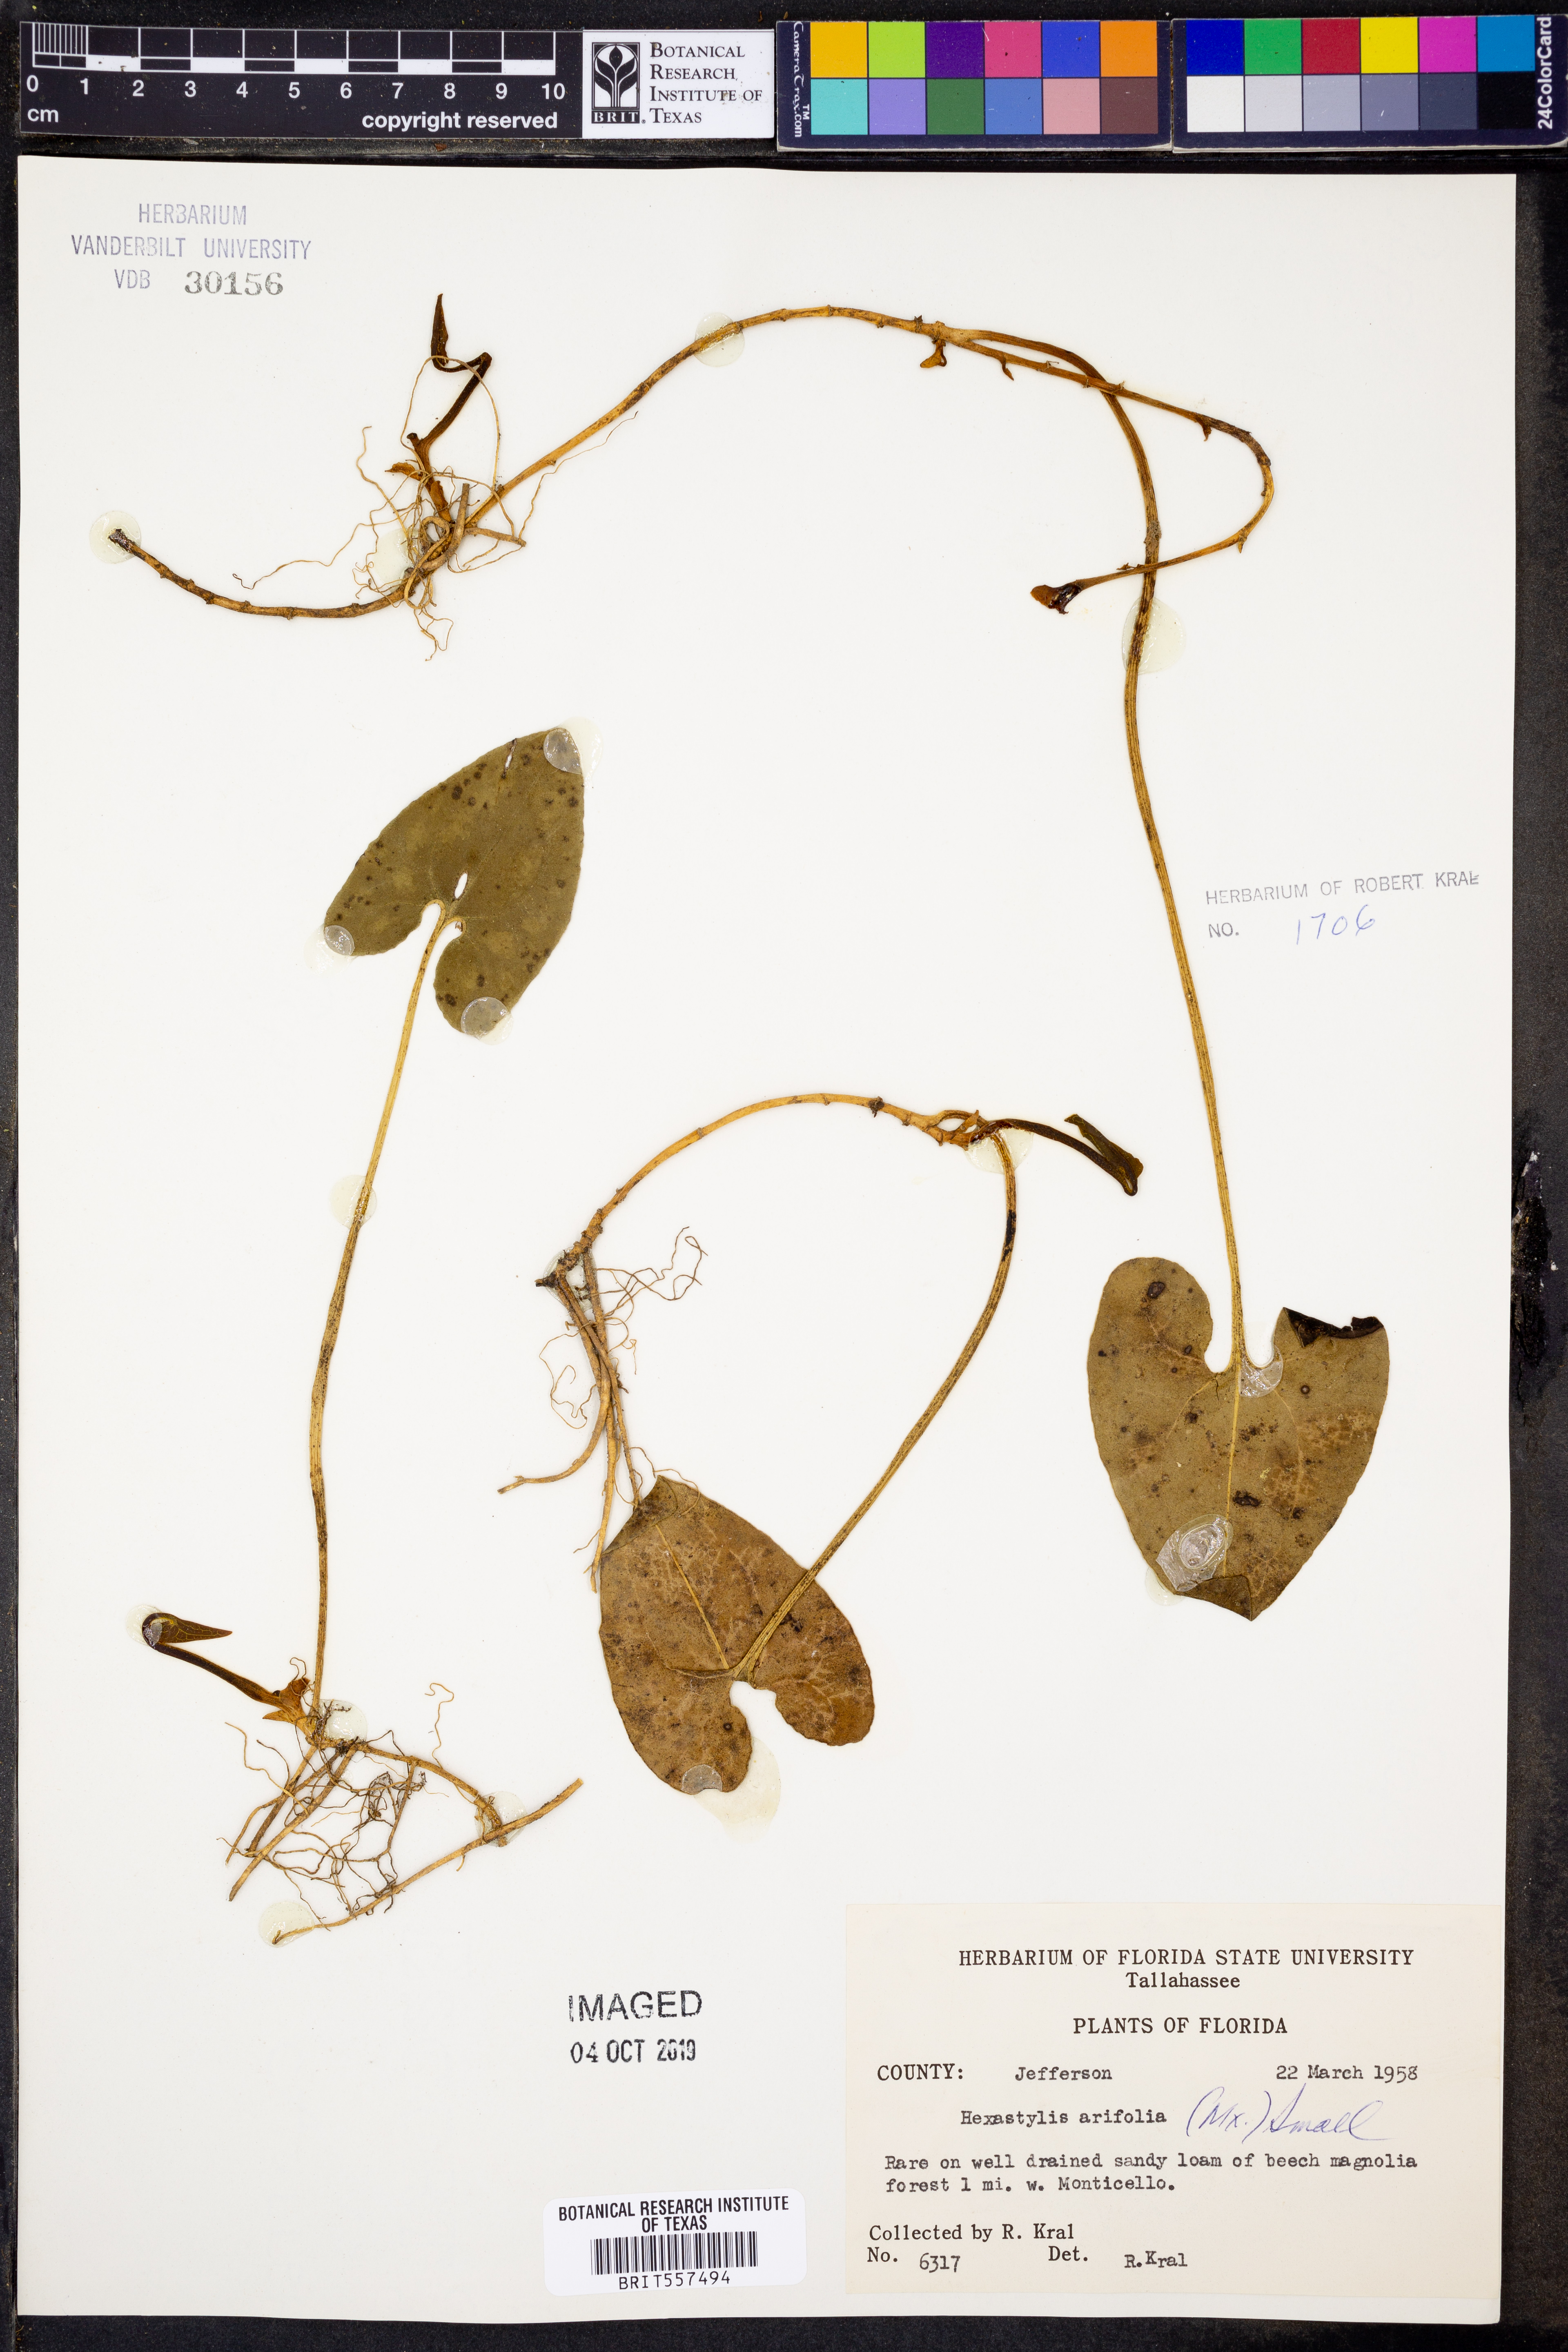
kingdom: Plantae
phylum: Tracheophyta
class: Magnoliopsida
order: Piperales
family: Aristolochiaceae
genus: Hexastylis
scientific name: Hexastylis arifolia
